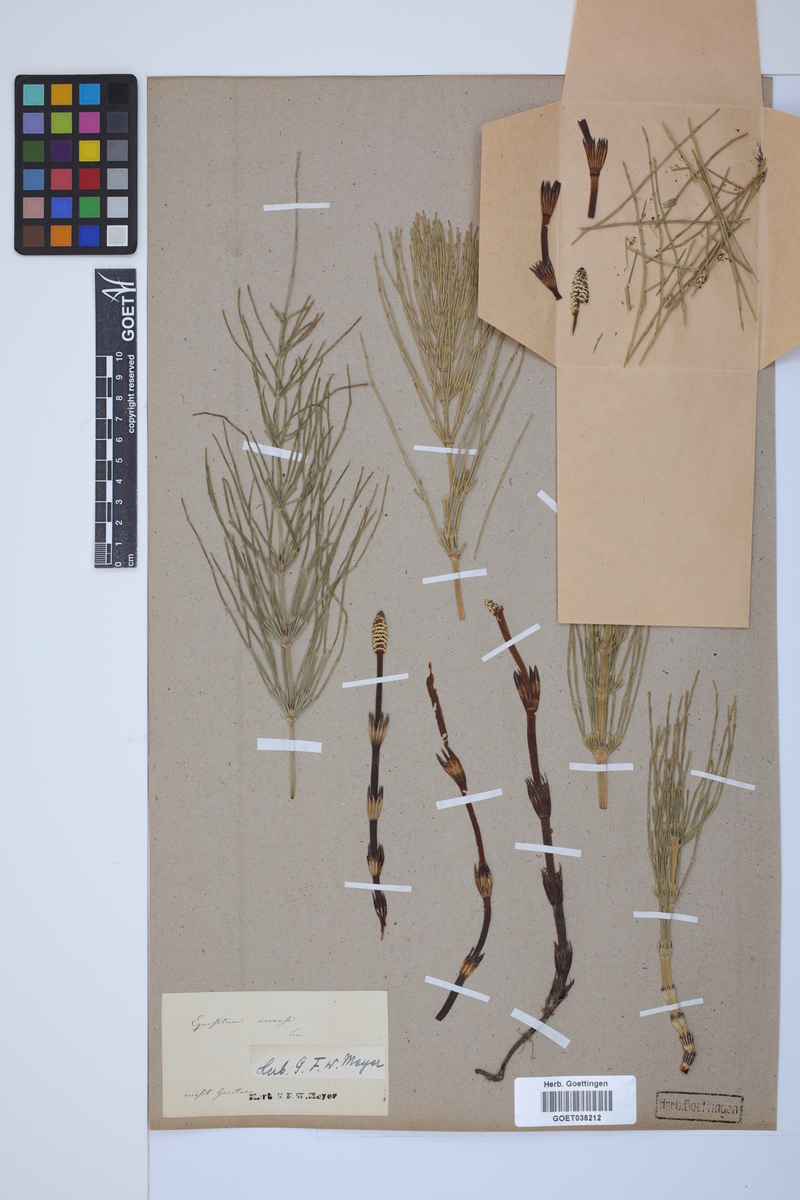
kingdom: Plantae
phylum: Tracheophyta
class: Polypodiopsida
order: Equisetales
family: Equisetaceae
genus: Equisetum
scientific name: Equisetum arvense
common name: Field horsetail
